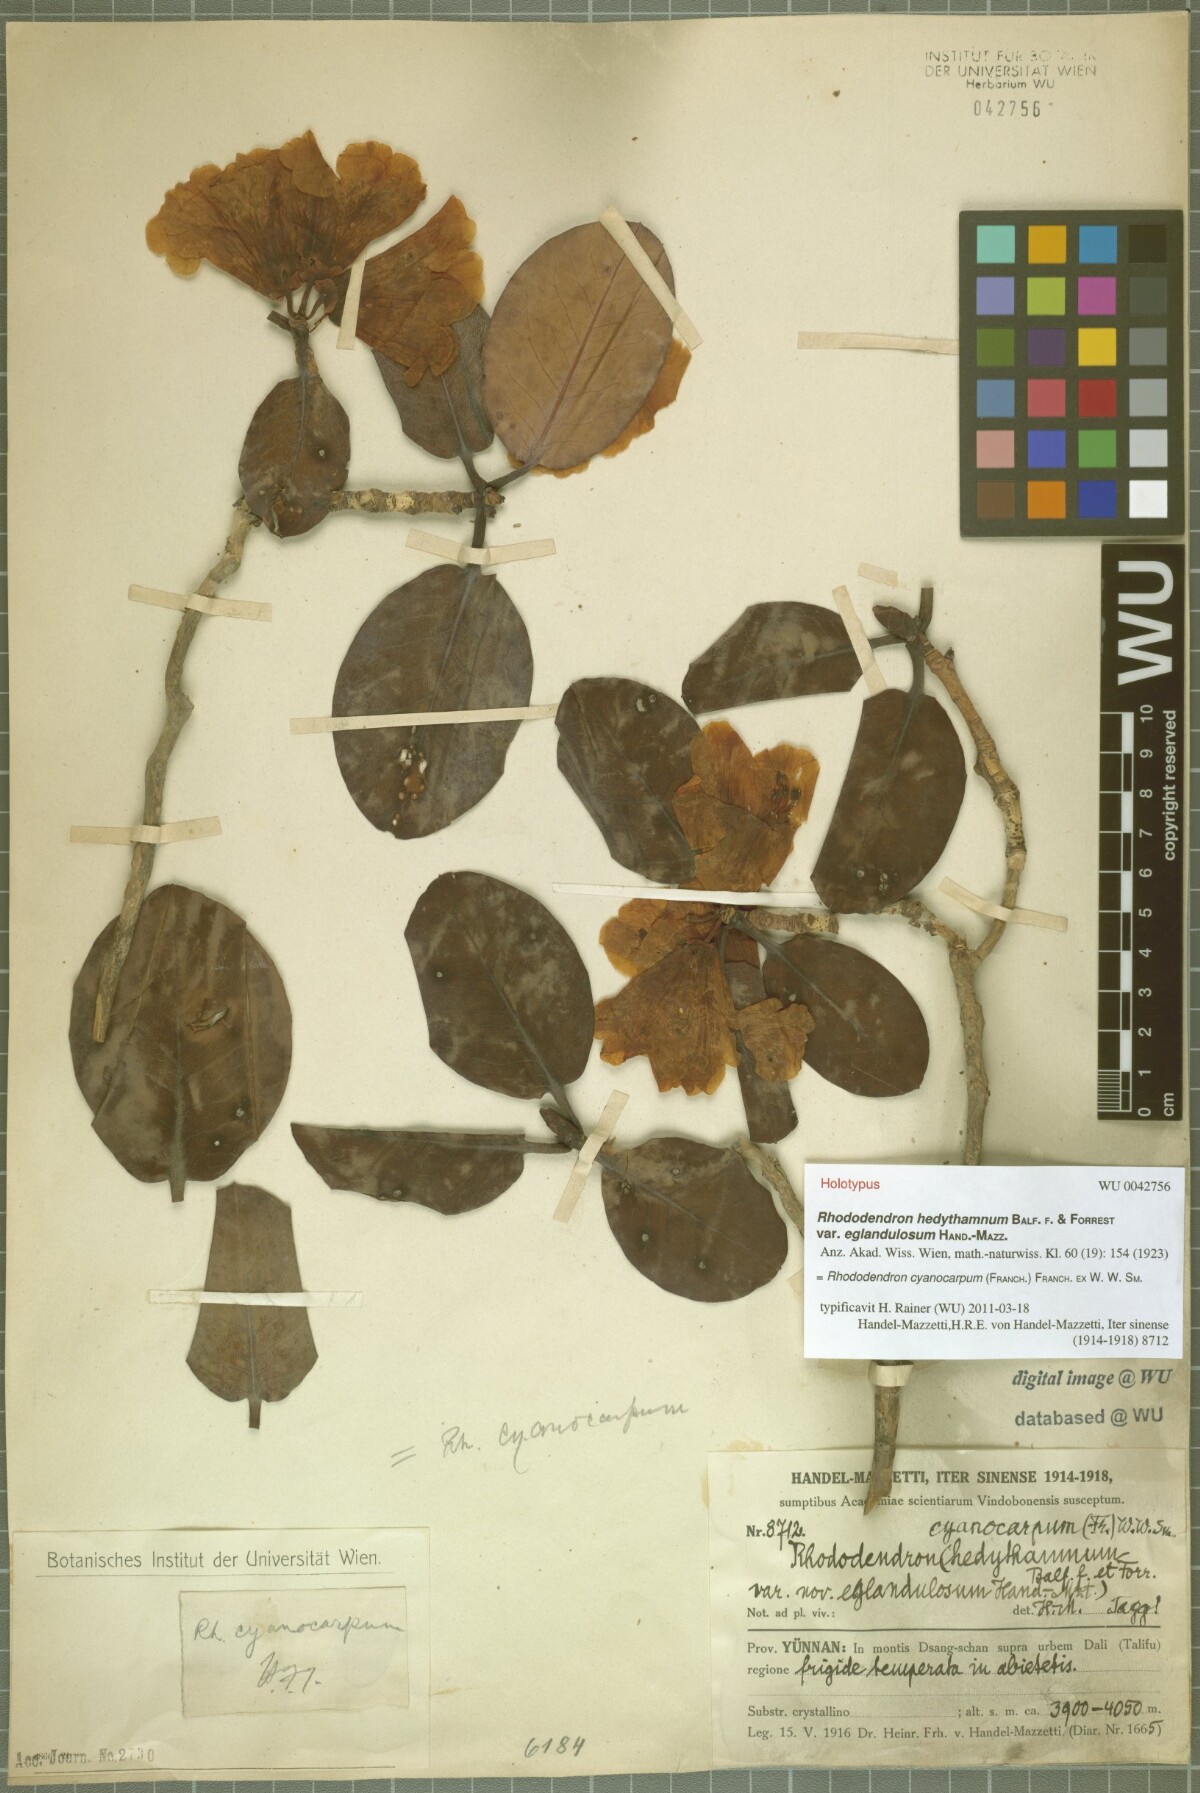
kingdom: Plantae
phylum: Tracheophyta
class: Magnoliopsida
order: Ericales
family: Ericaceae
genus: Rhododendron
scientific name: Rhododendron cyanocarpum
